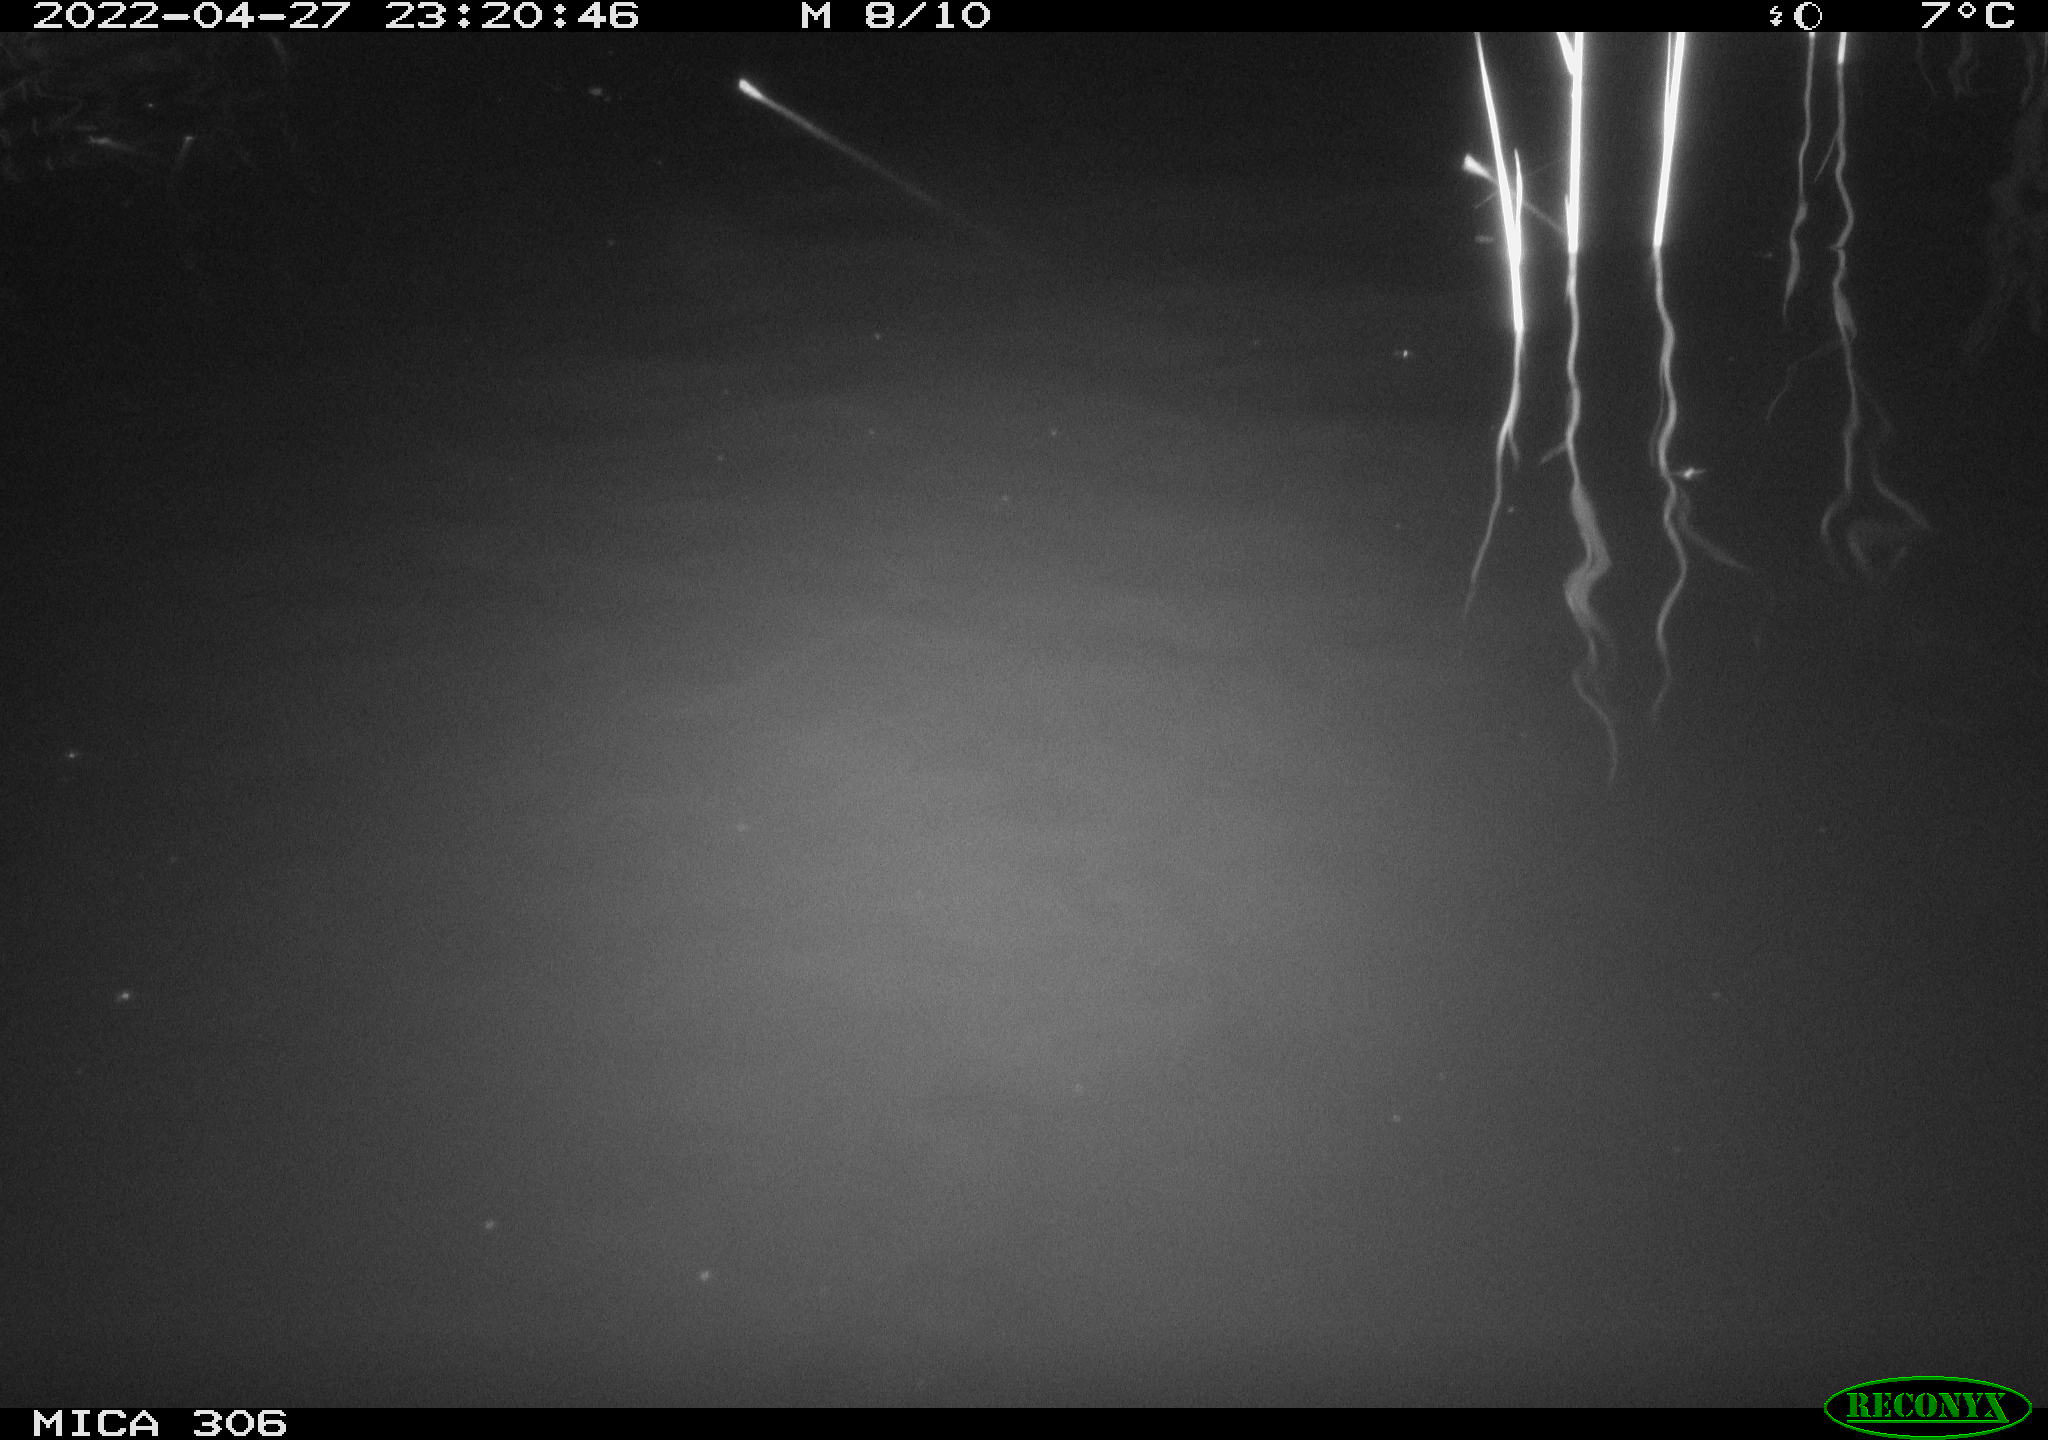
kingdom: Animalia
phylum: Chordata
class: Mammalia
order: Rodentia
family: Cricetidae
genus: Ondatra
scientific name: Ondatra zibethicus
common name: Muskrat
